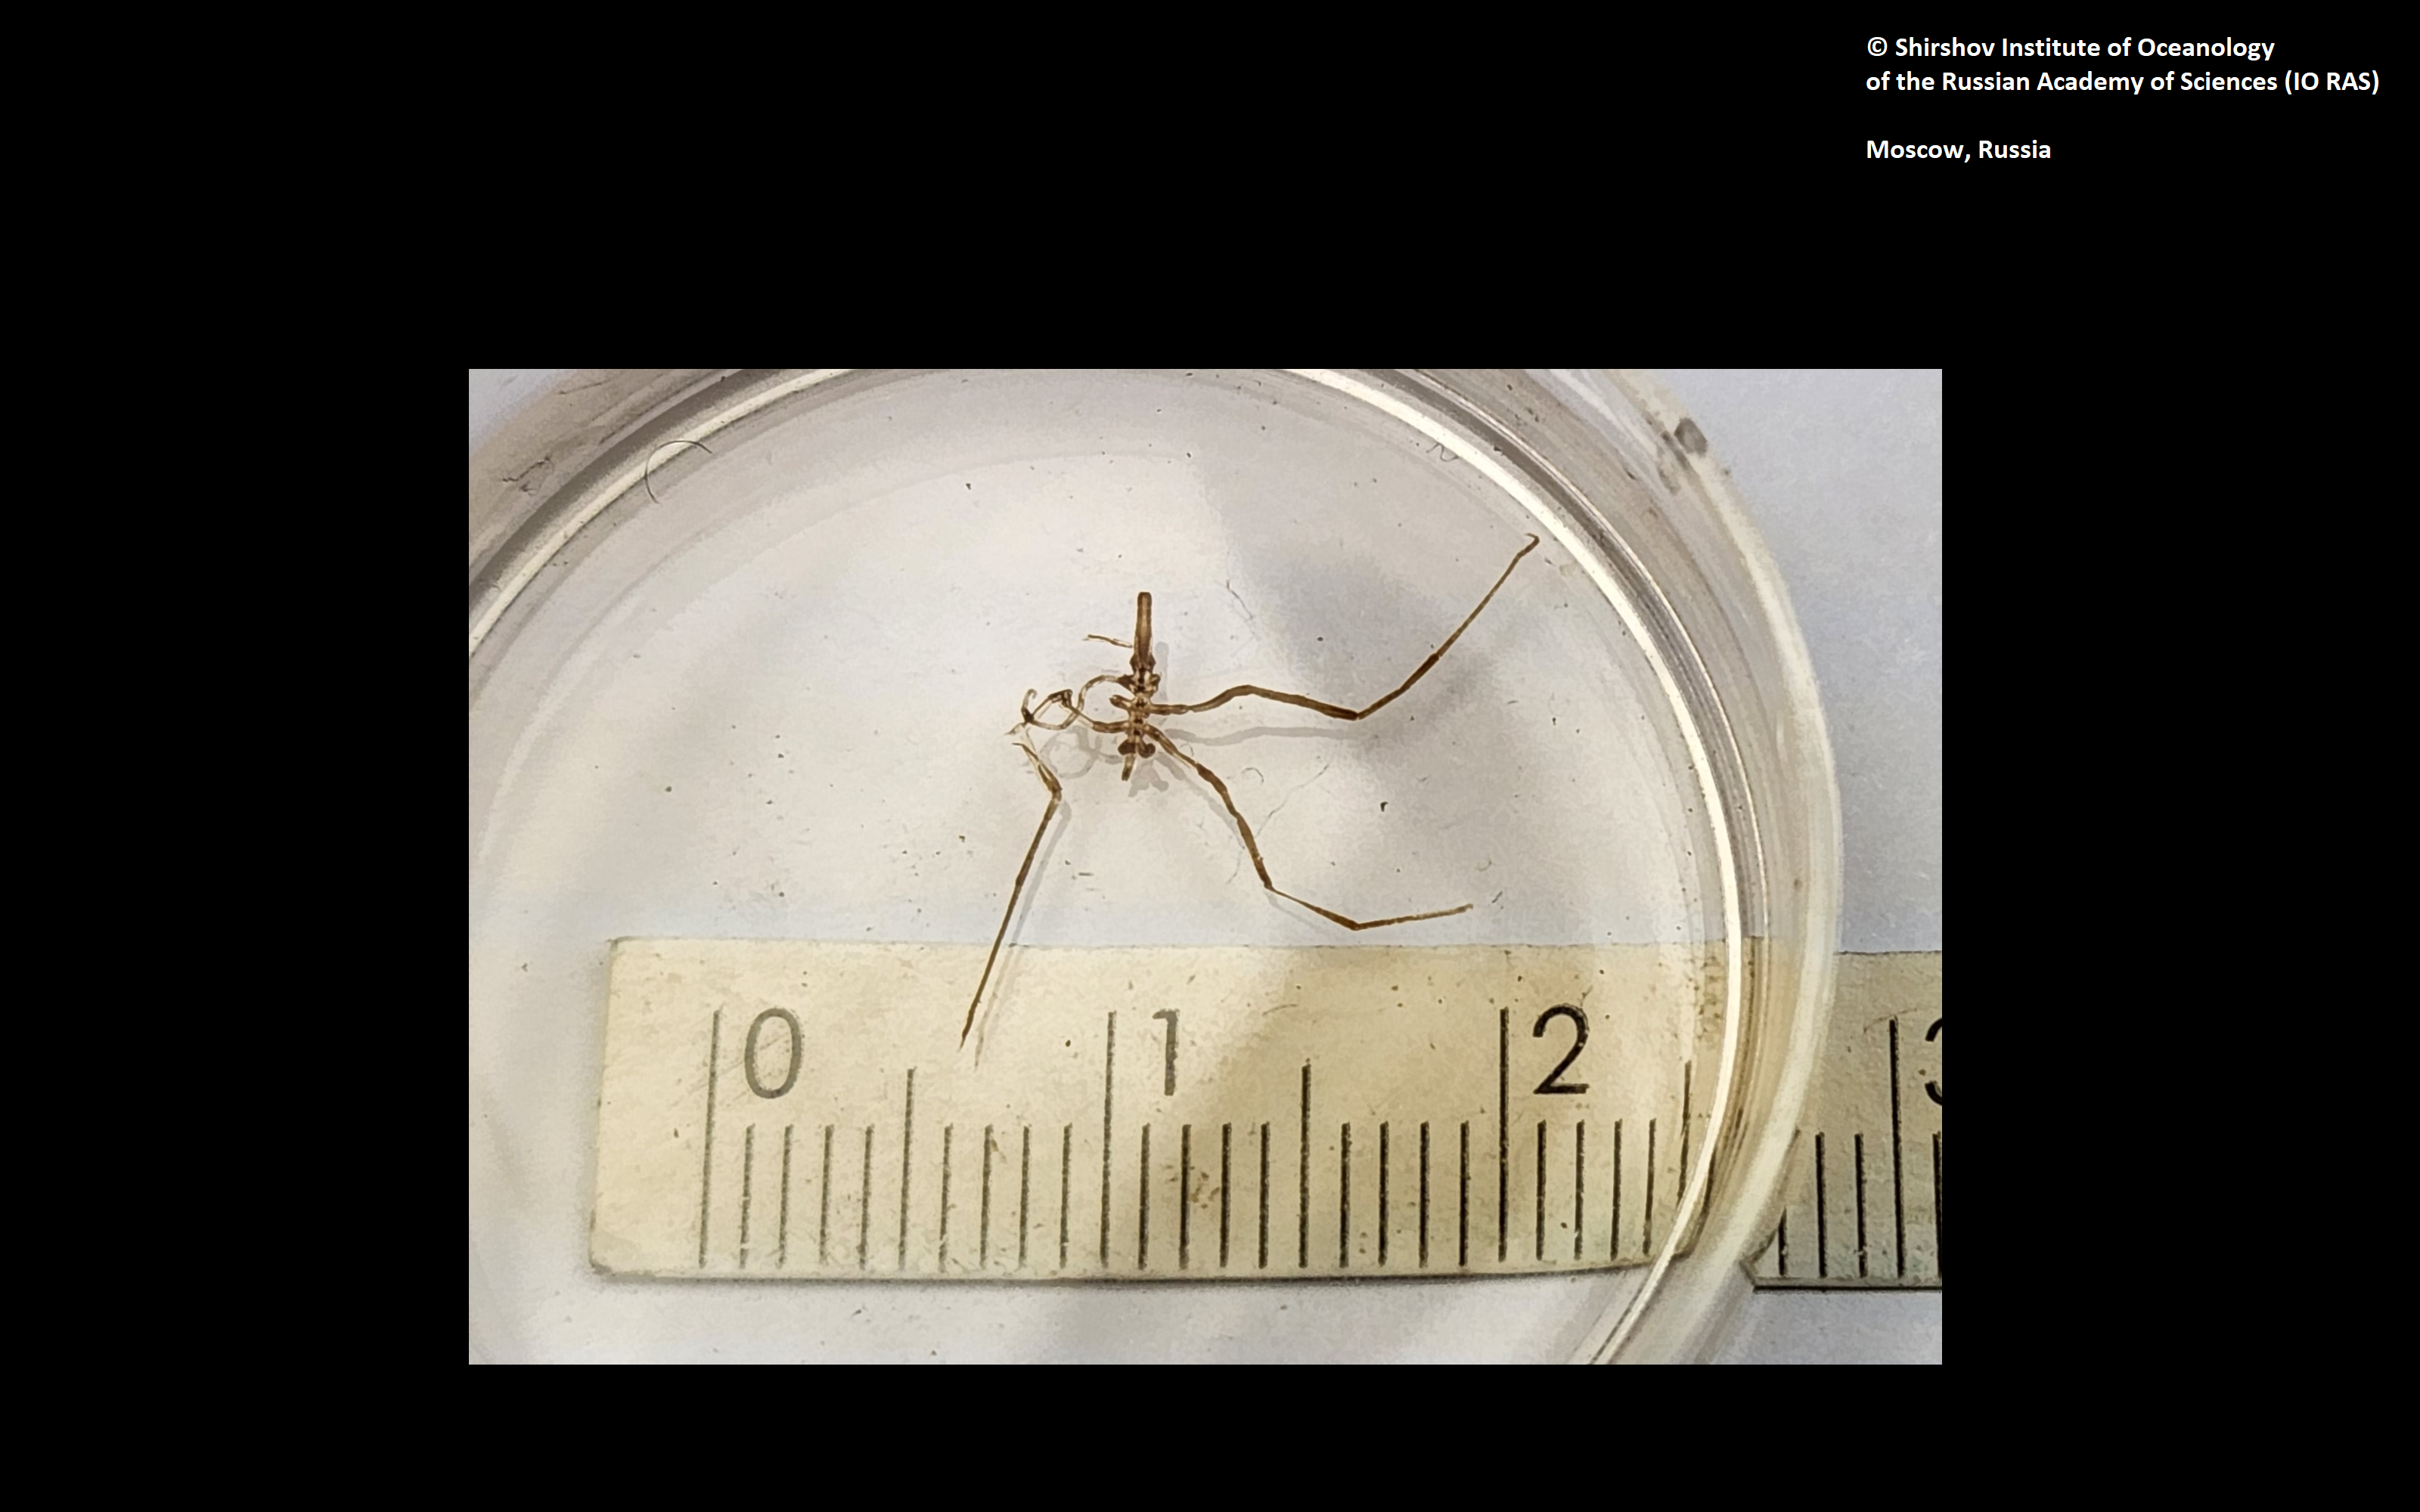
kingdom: Animalia
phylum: Arthropoda
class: Pycnogonida
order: Pantopoda
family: Pallenopsidae
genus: Bathypallenopsis
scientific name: Bathypallenopsis tritonis
